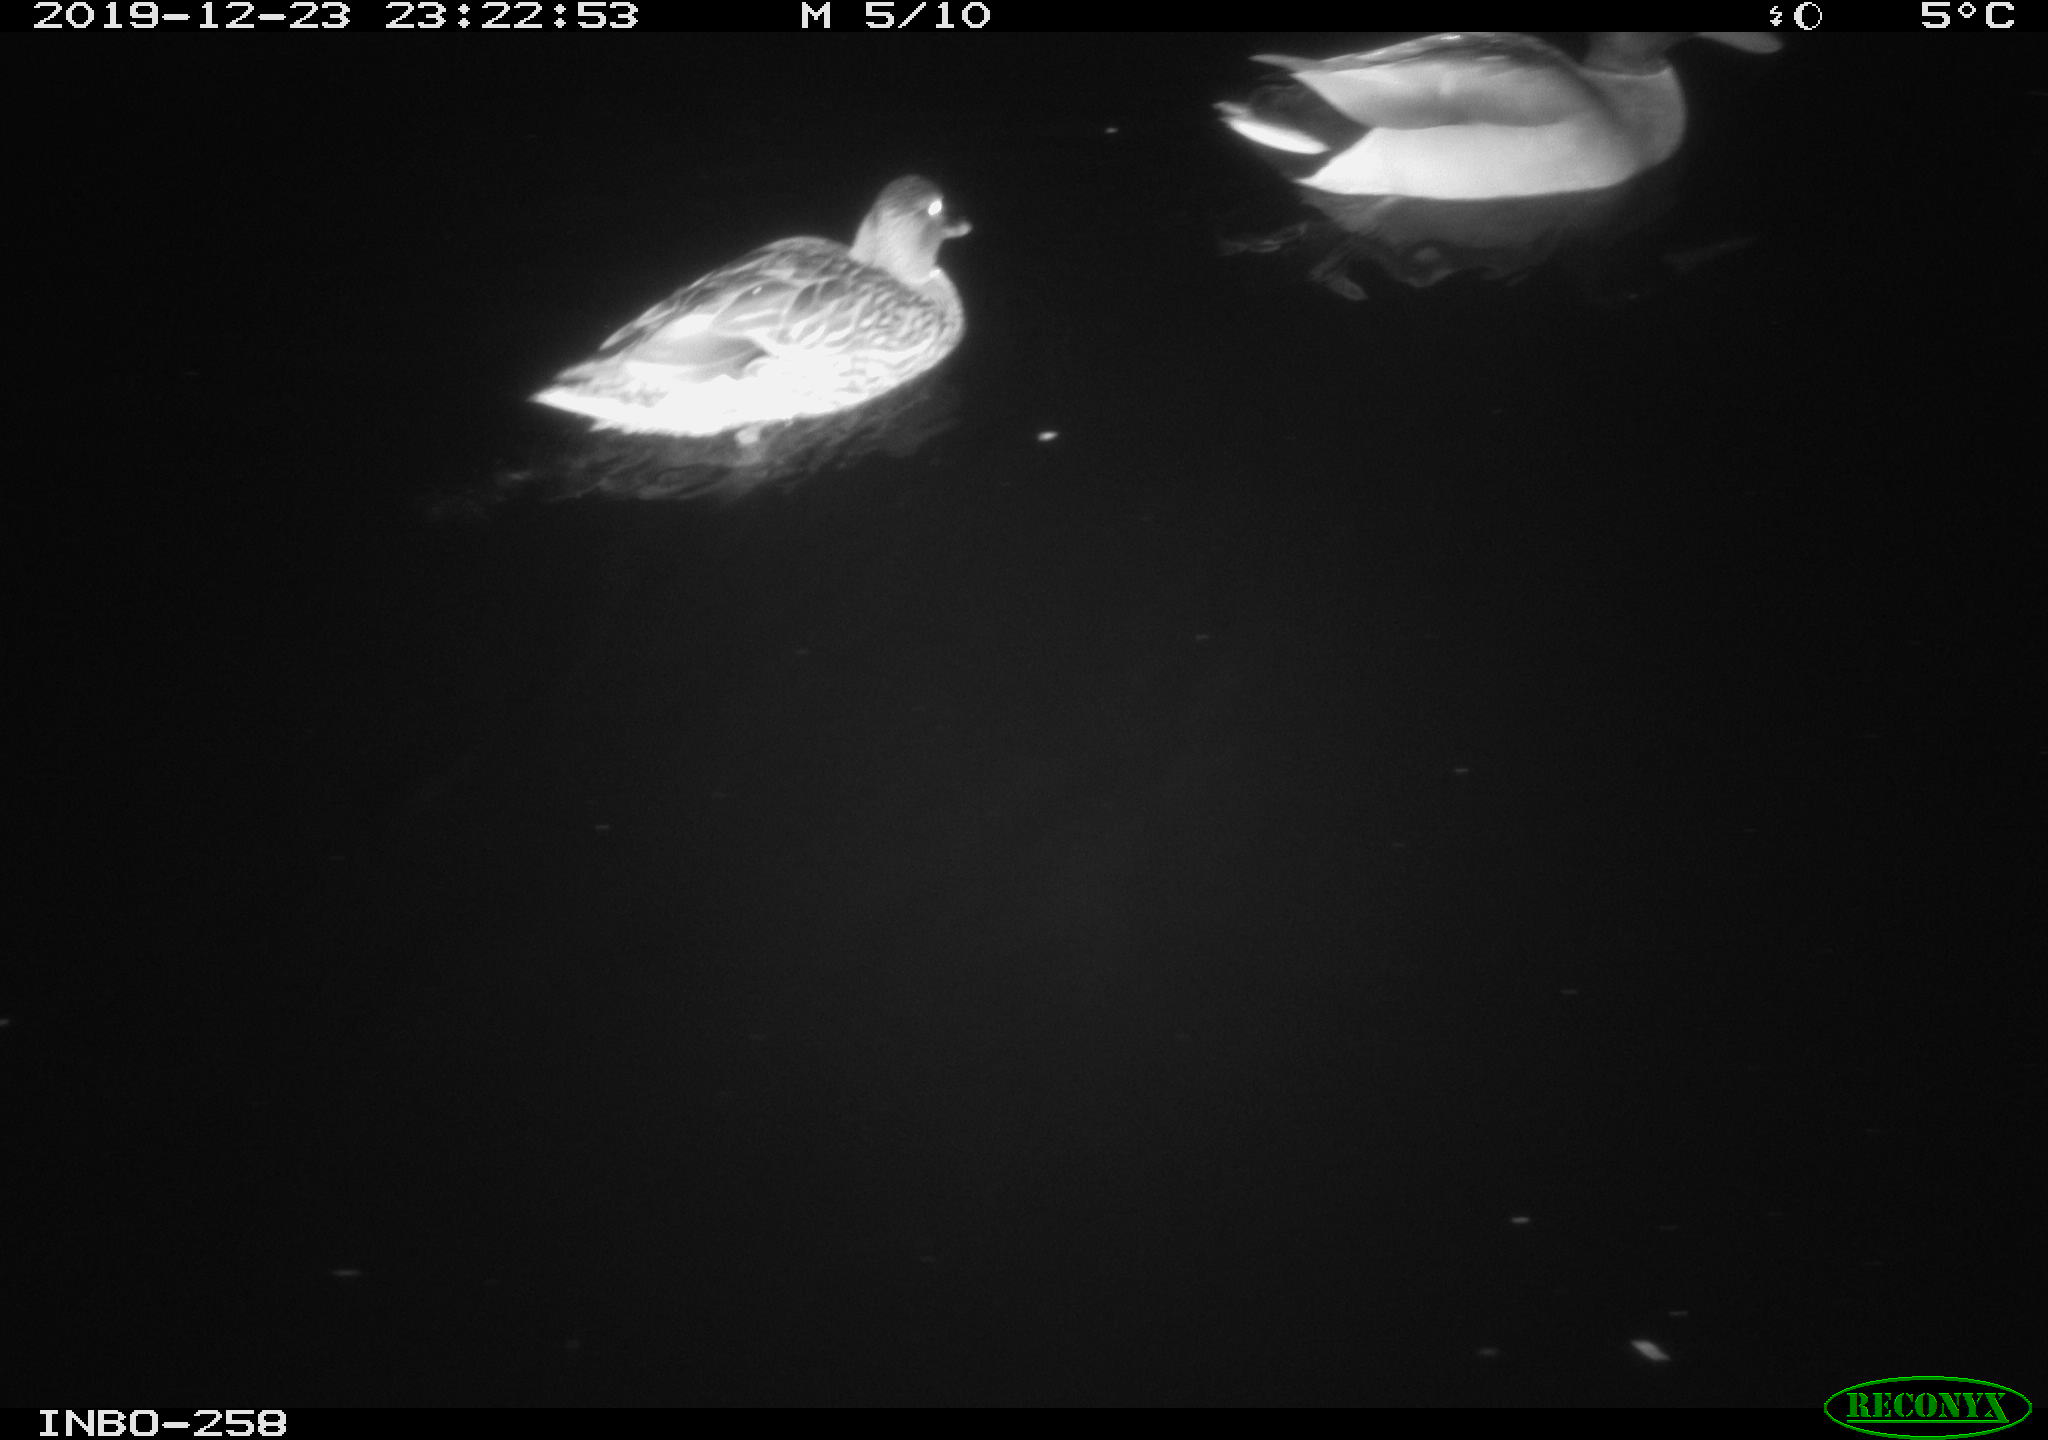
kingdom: Animalia
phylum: Chordata
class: Aves
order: Anseriformes
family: Anatidae
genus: Anas
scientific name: Anas platyrhynchos
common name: Mallard
